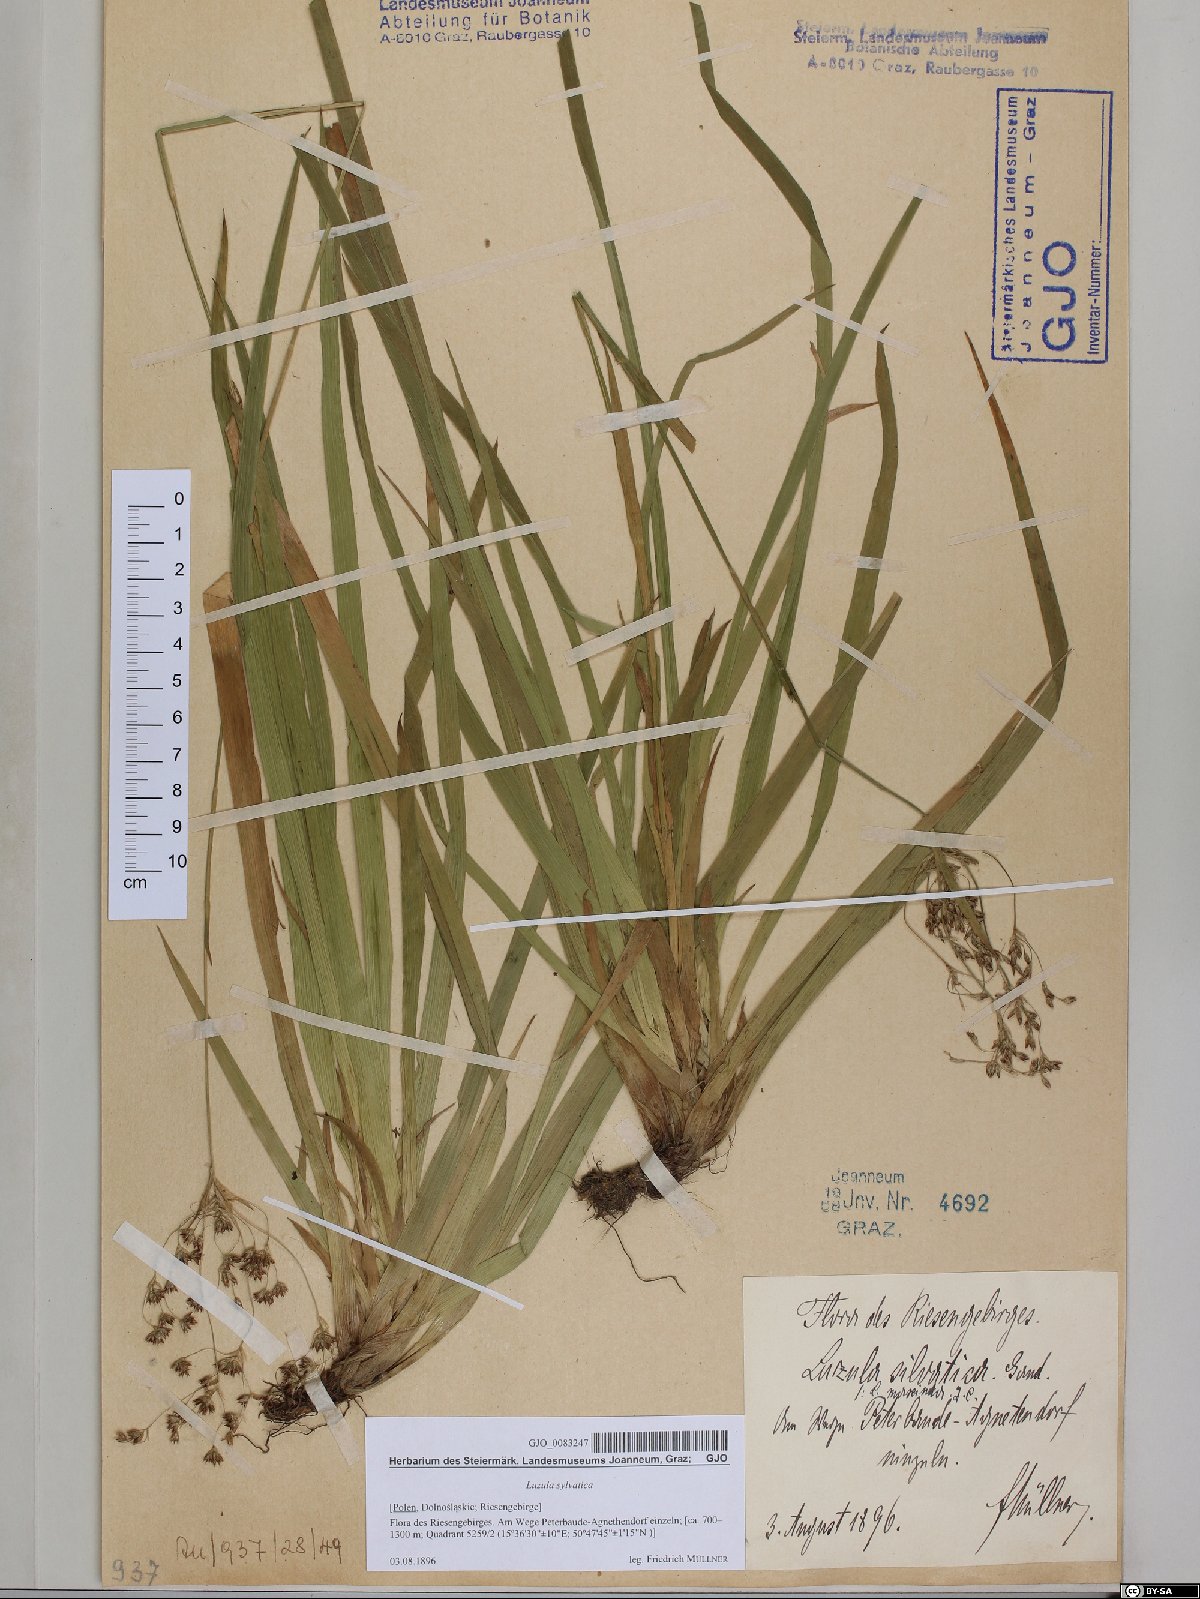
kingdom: Plantae
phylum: Tracheophyta
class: Liliopsida
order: Poales
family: Juncaceae
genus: Luzula
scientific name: Luzula sylvatica
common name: Great wood-rush
